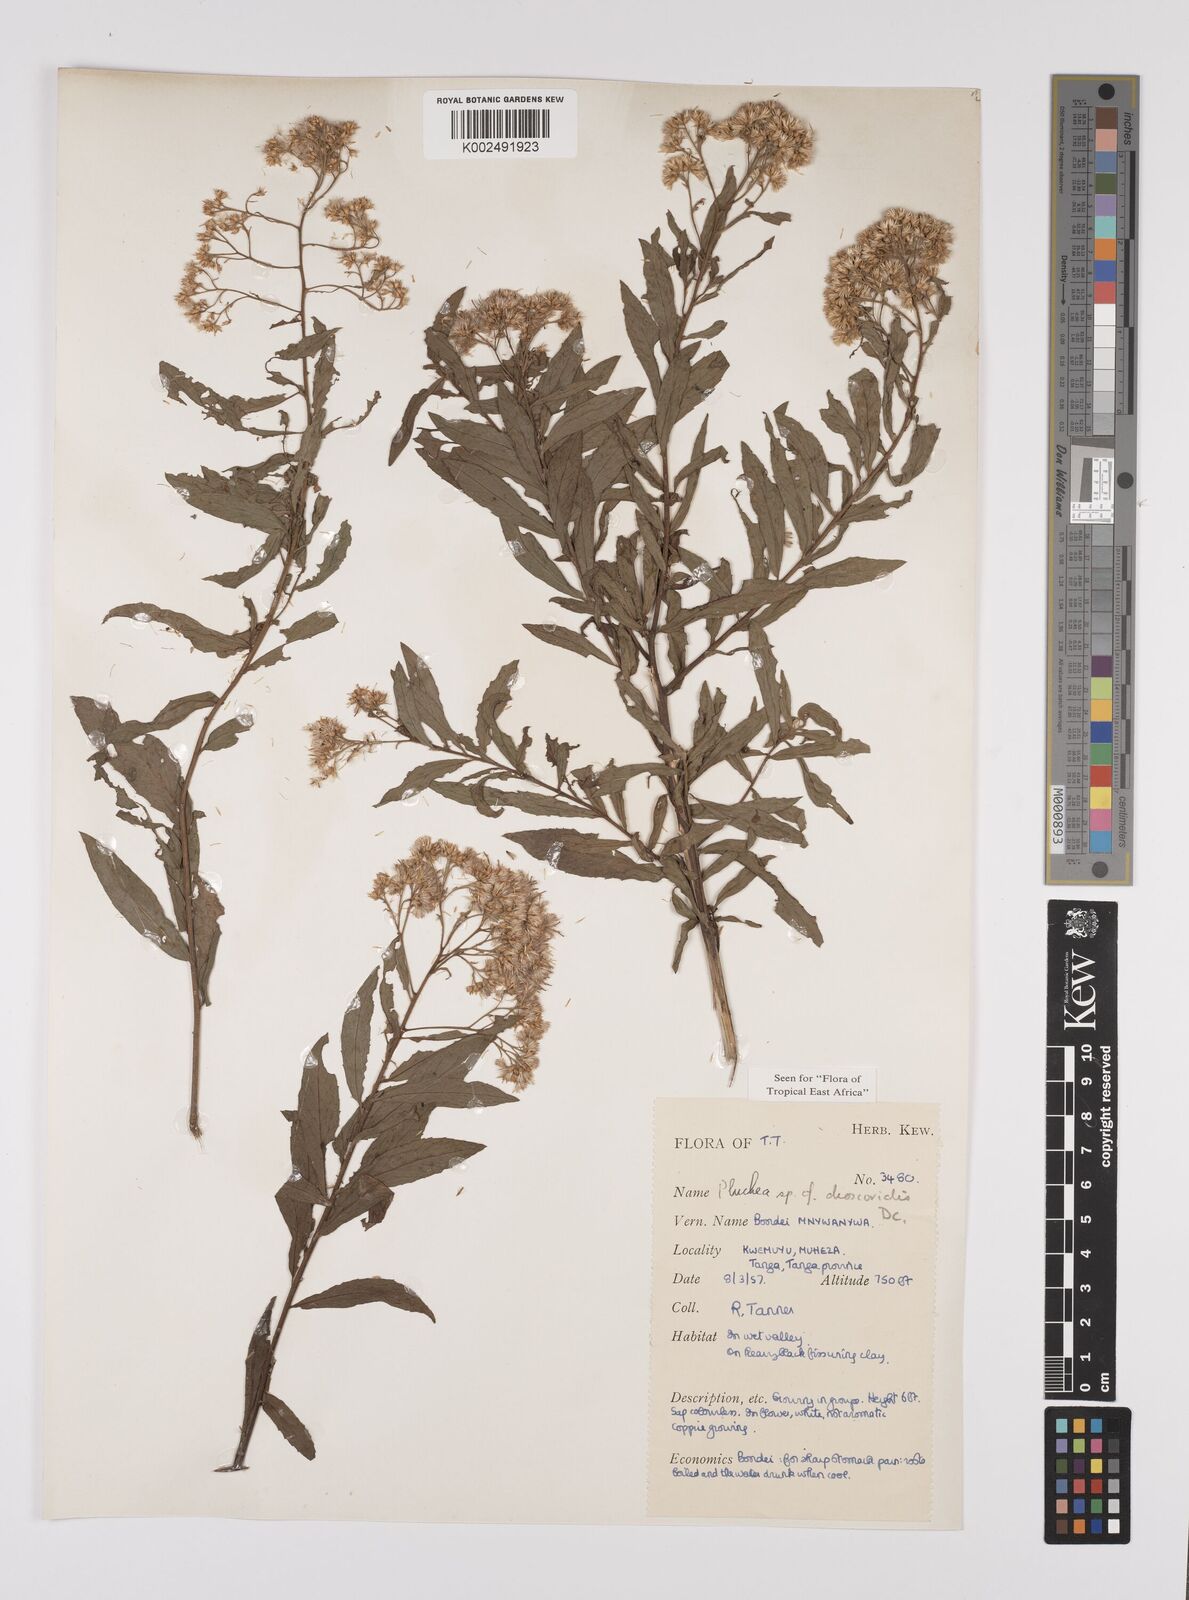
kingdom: Plantae
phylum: Tracheophyta
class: Magnoliopsida
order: Asterales
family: Asteraceae
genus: Pluchea
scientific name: Pluchea dioscoridis
